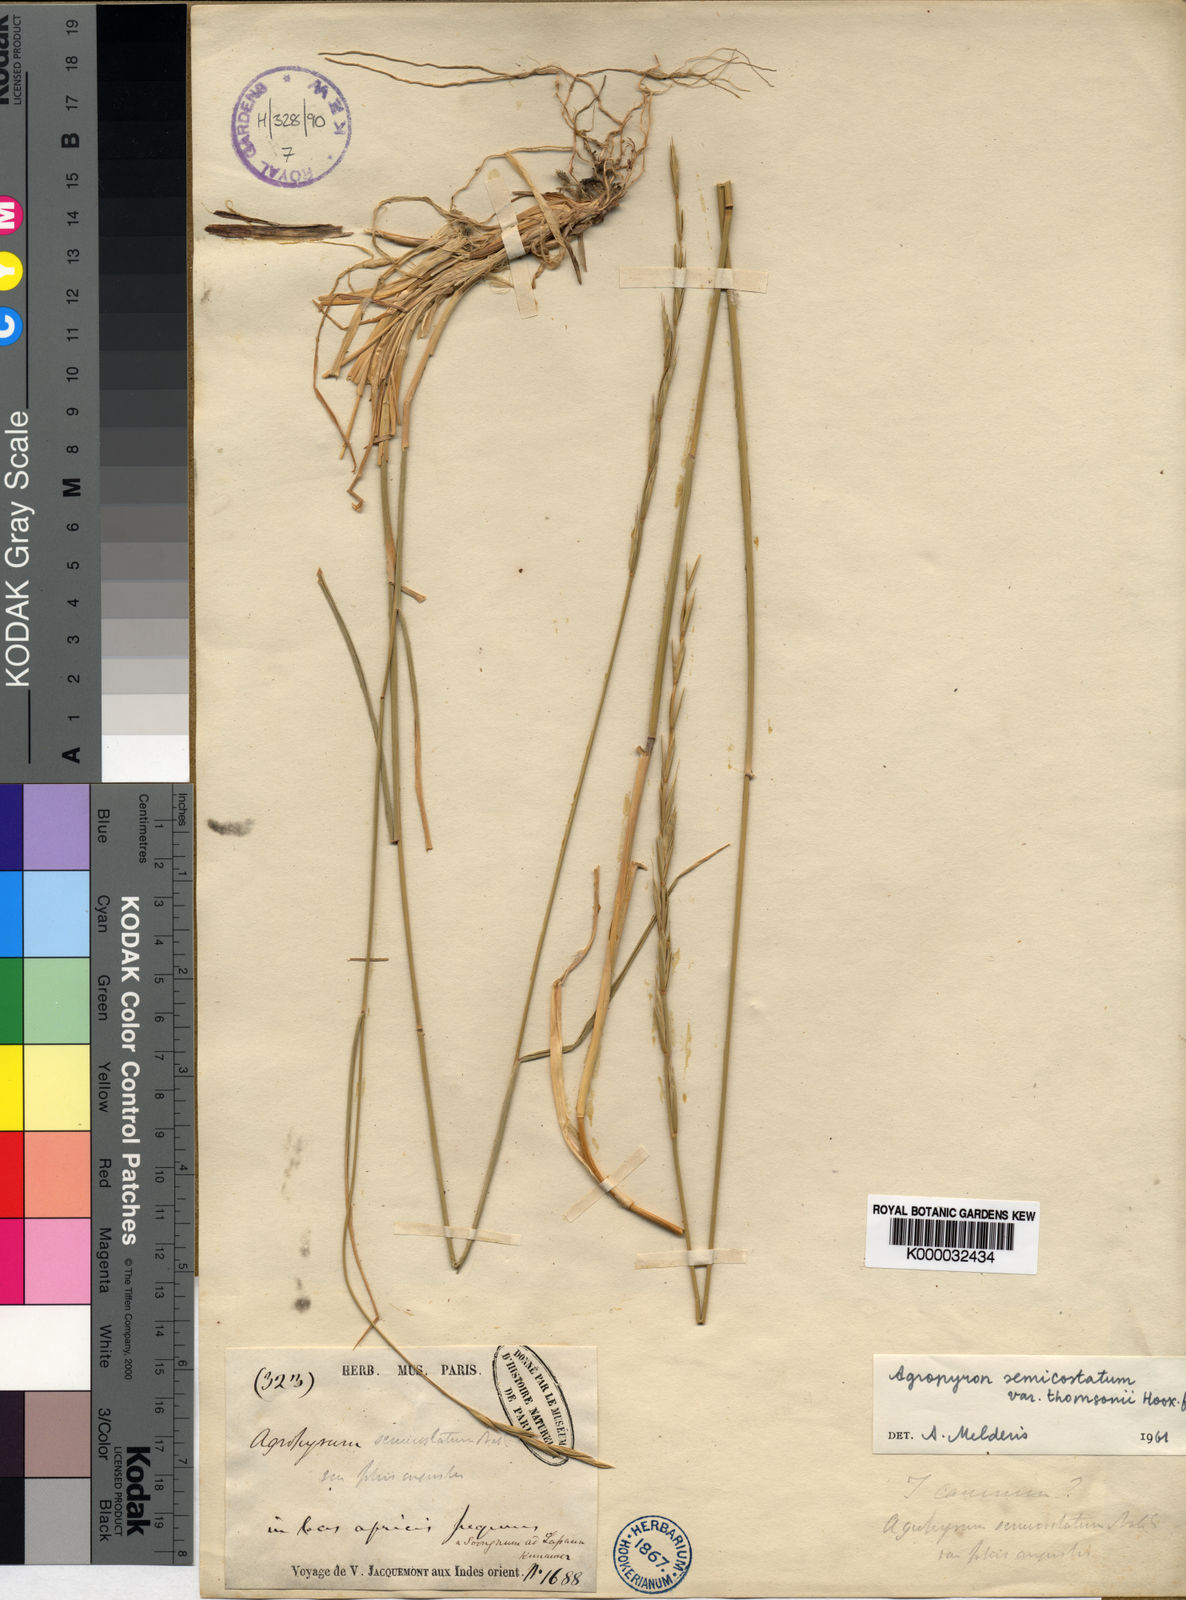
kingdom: Plantae
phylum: Tracheophyta
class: Liliopsida
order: Poales
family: Poaceae
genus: Elymus
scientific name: Elymus semicostatus
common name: Drooping wildrye
